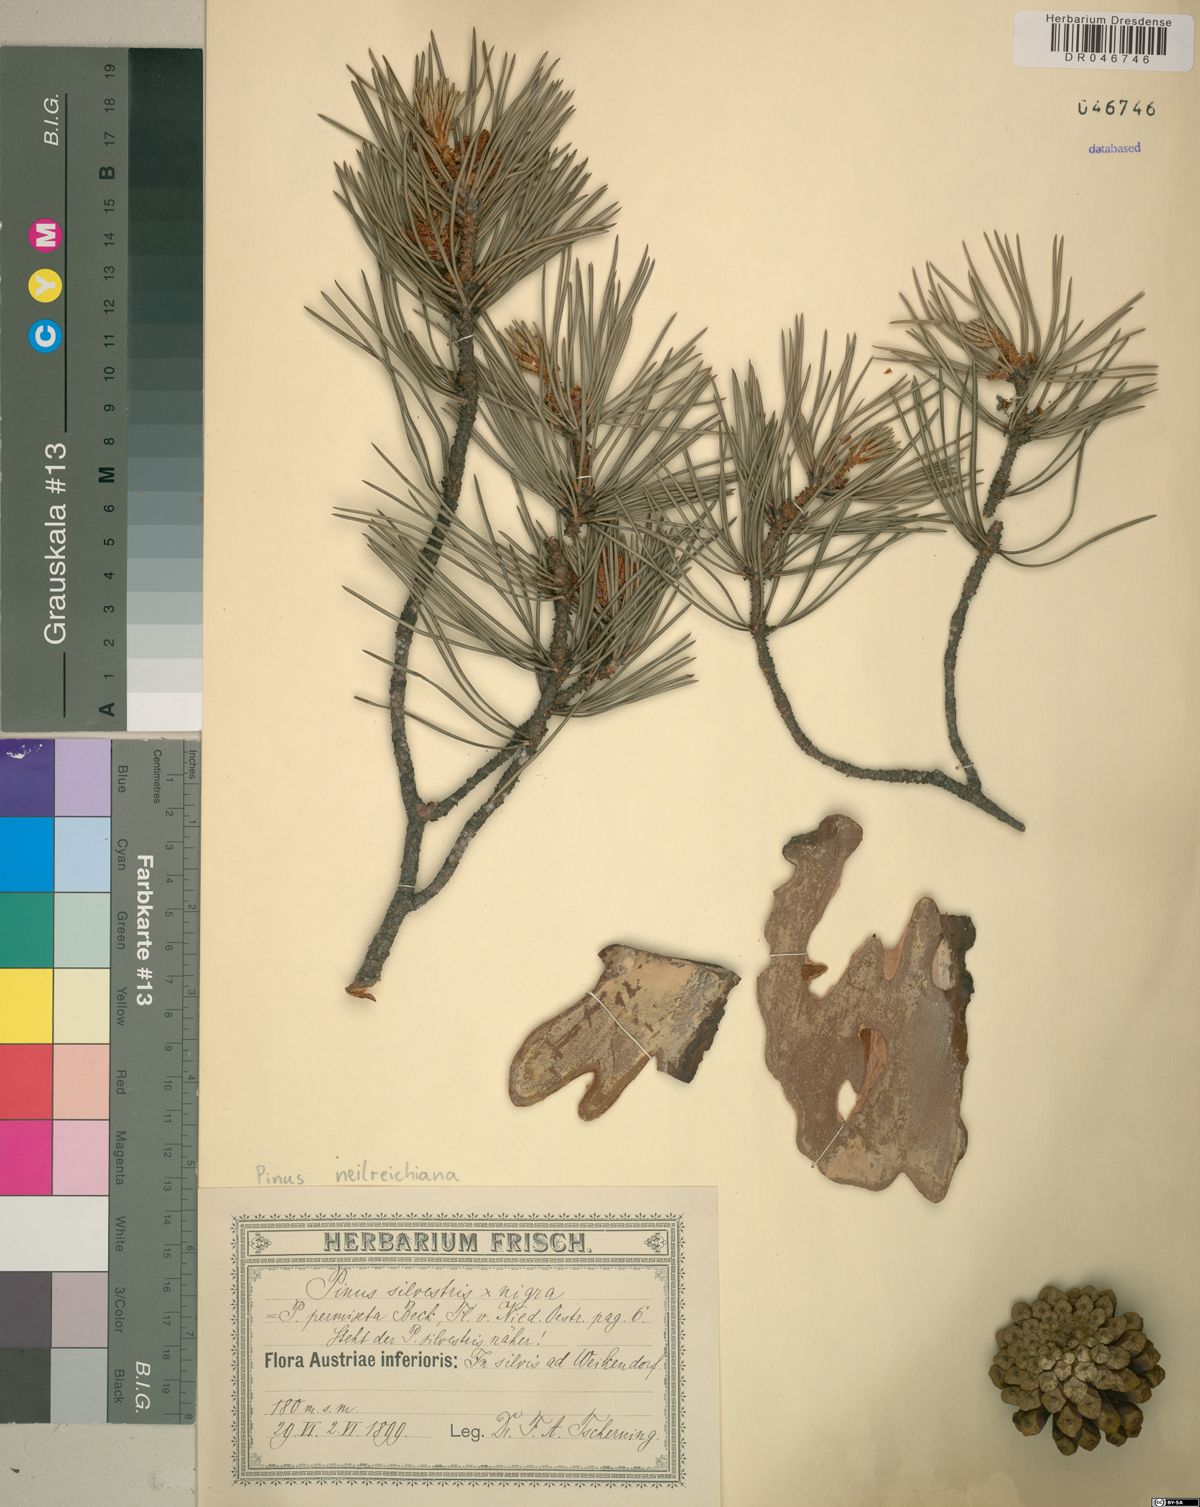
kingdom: Plantae
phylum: Tracheophyta
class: Pinopsida
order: Pinales
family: Pinaceae
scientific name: Pinaceae
